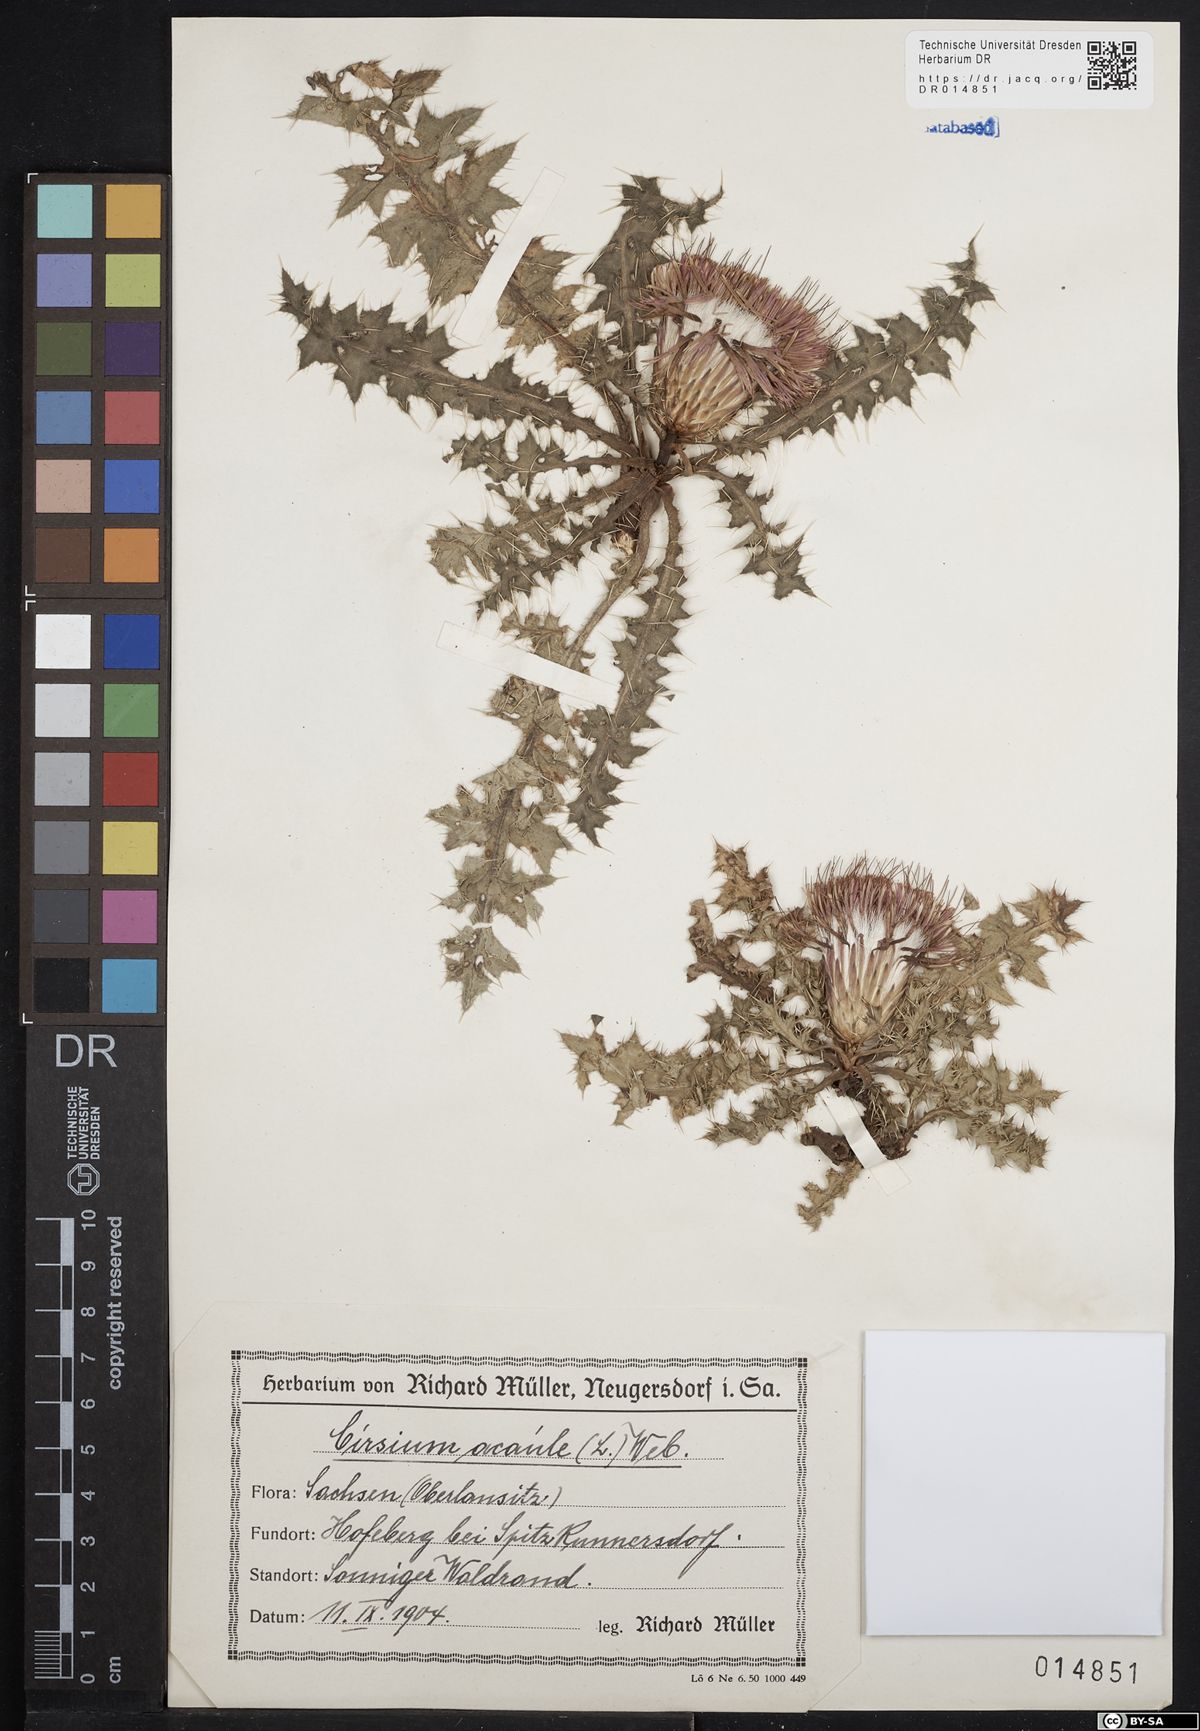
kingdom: Plantae
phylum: Tracheophyta
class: Magnoliopsida
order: Asterales
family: Asteraceae
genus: Cirsium
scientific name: Cirsium acaule
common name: Dwarf thistle
